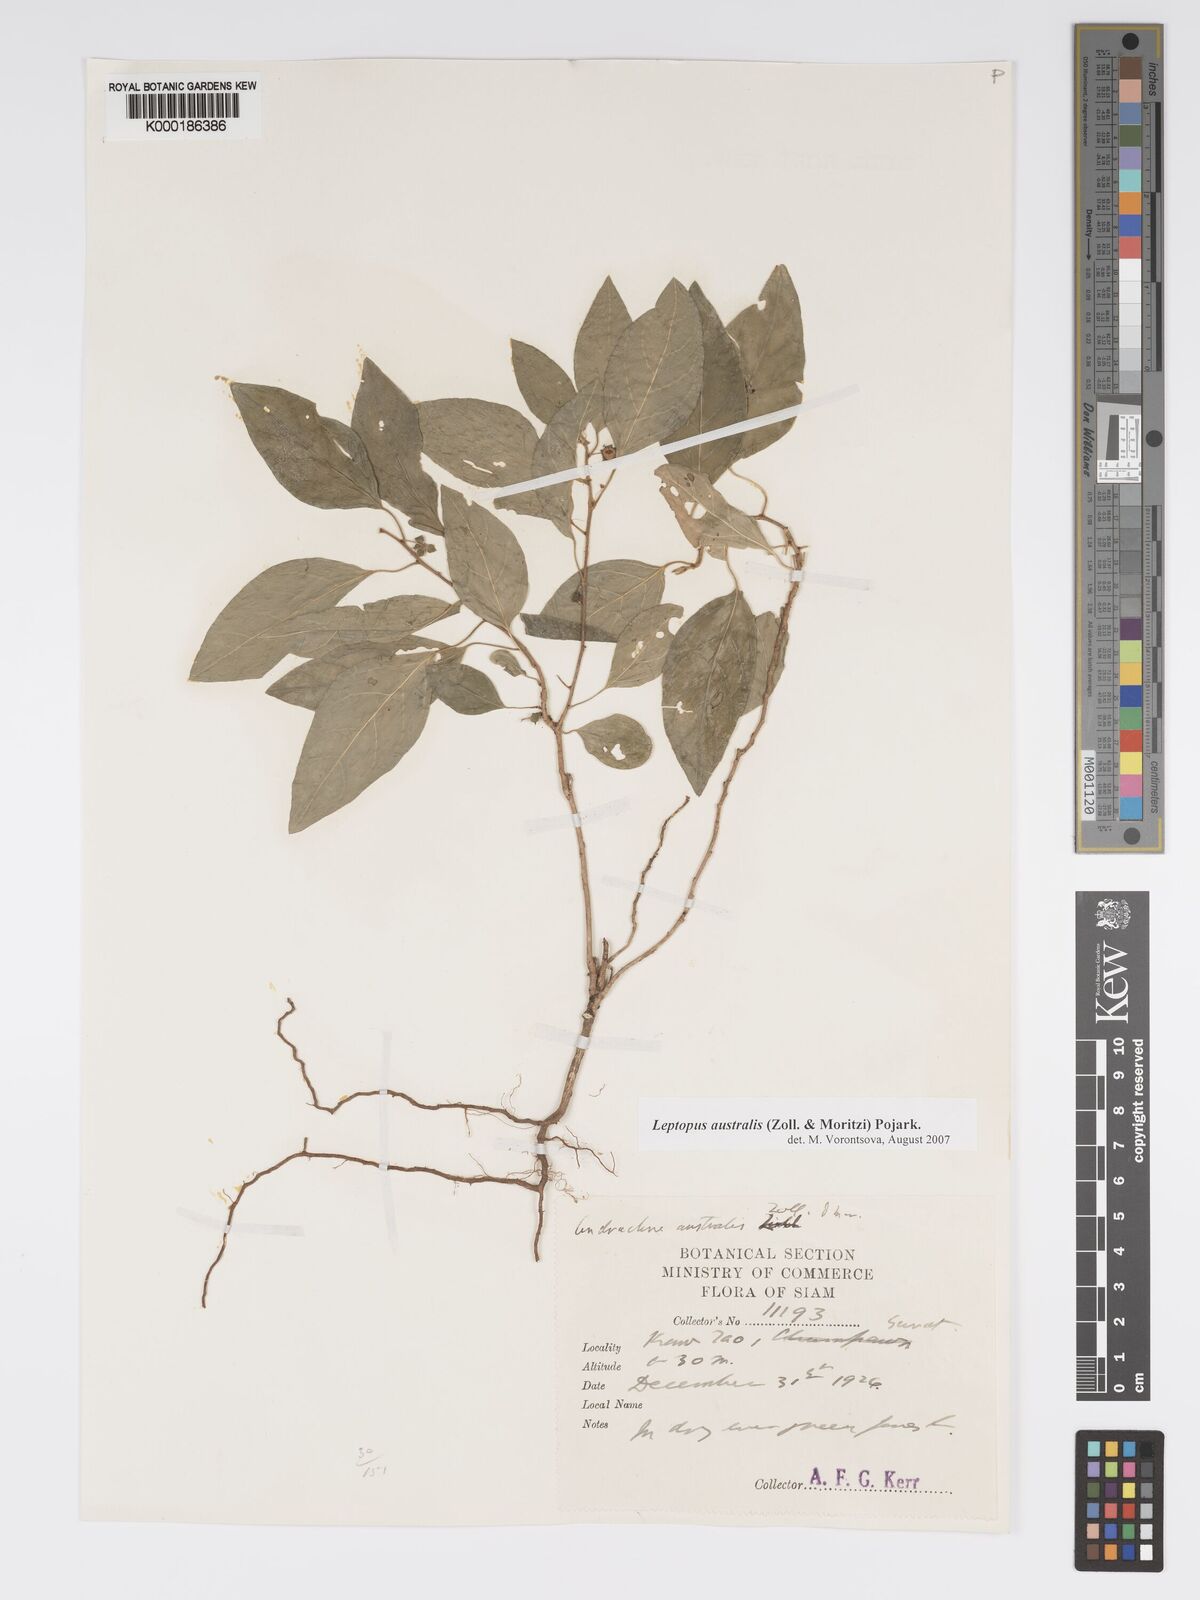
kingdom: Plantae
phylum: Tracheophyta
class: Magnoliopsida
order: Malpighiales
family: Phyllanthaceae
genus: Andrachne
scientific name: Andrachne
